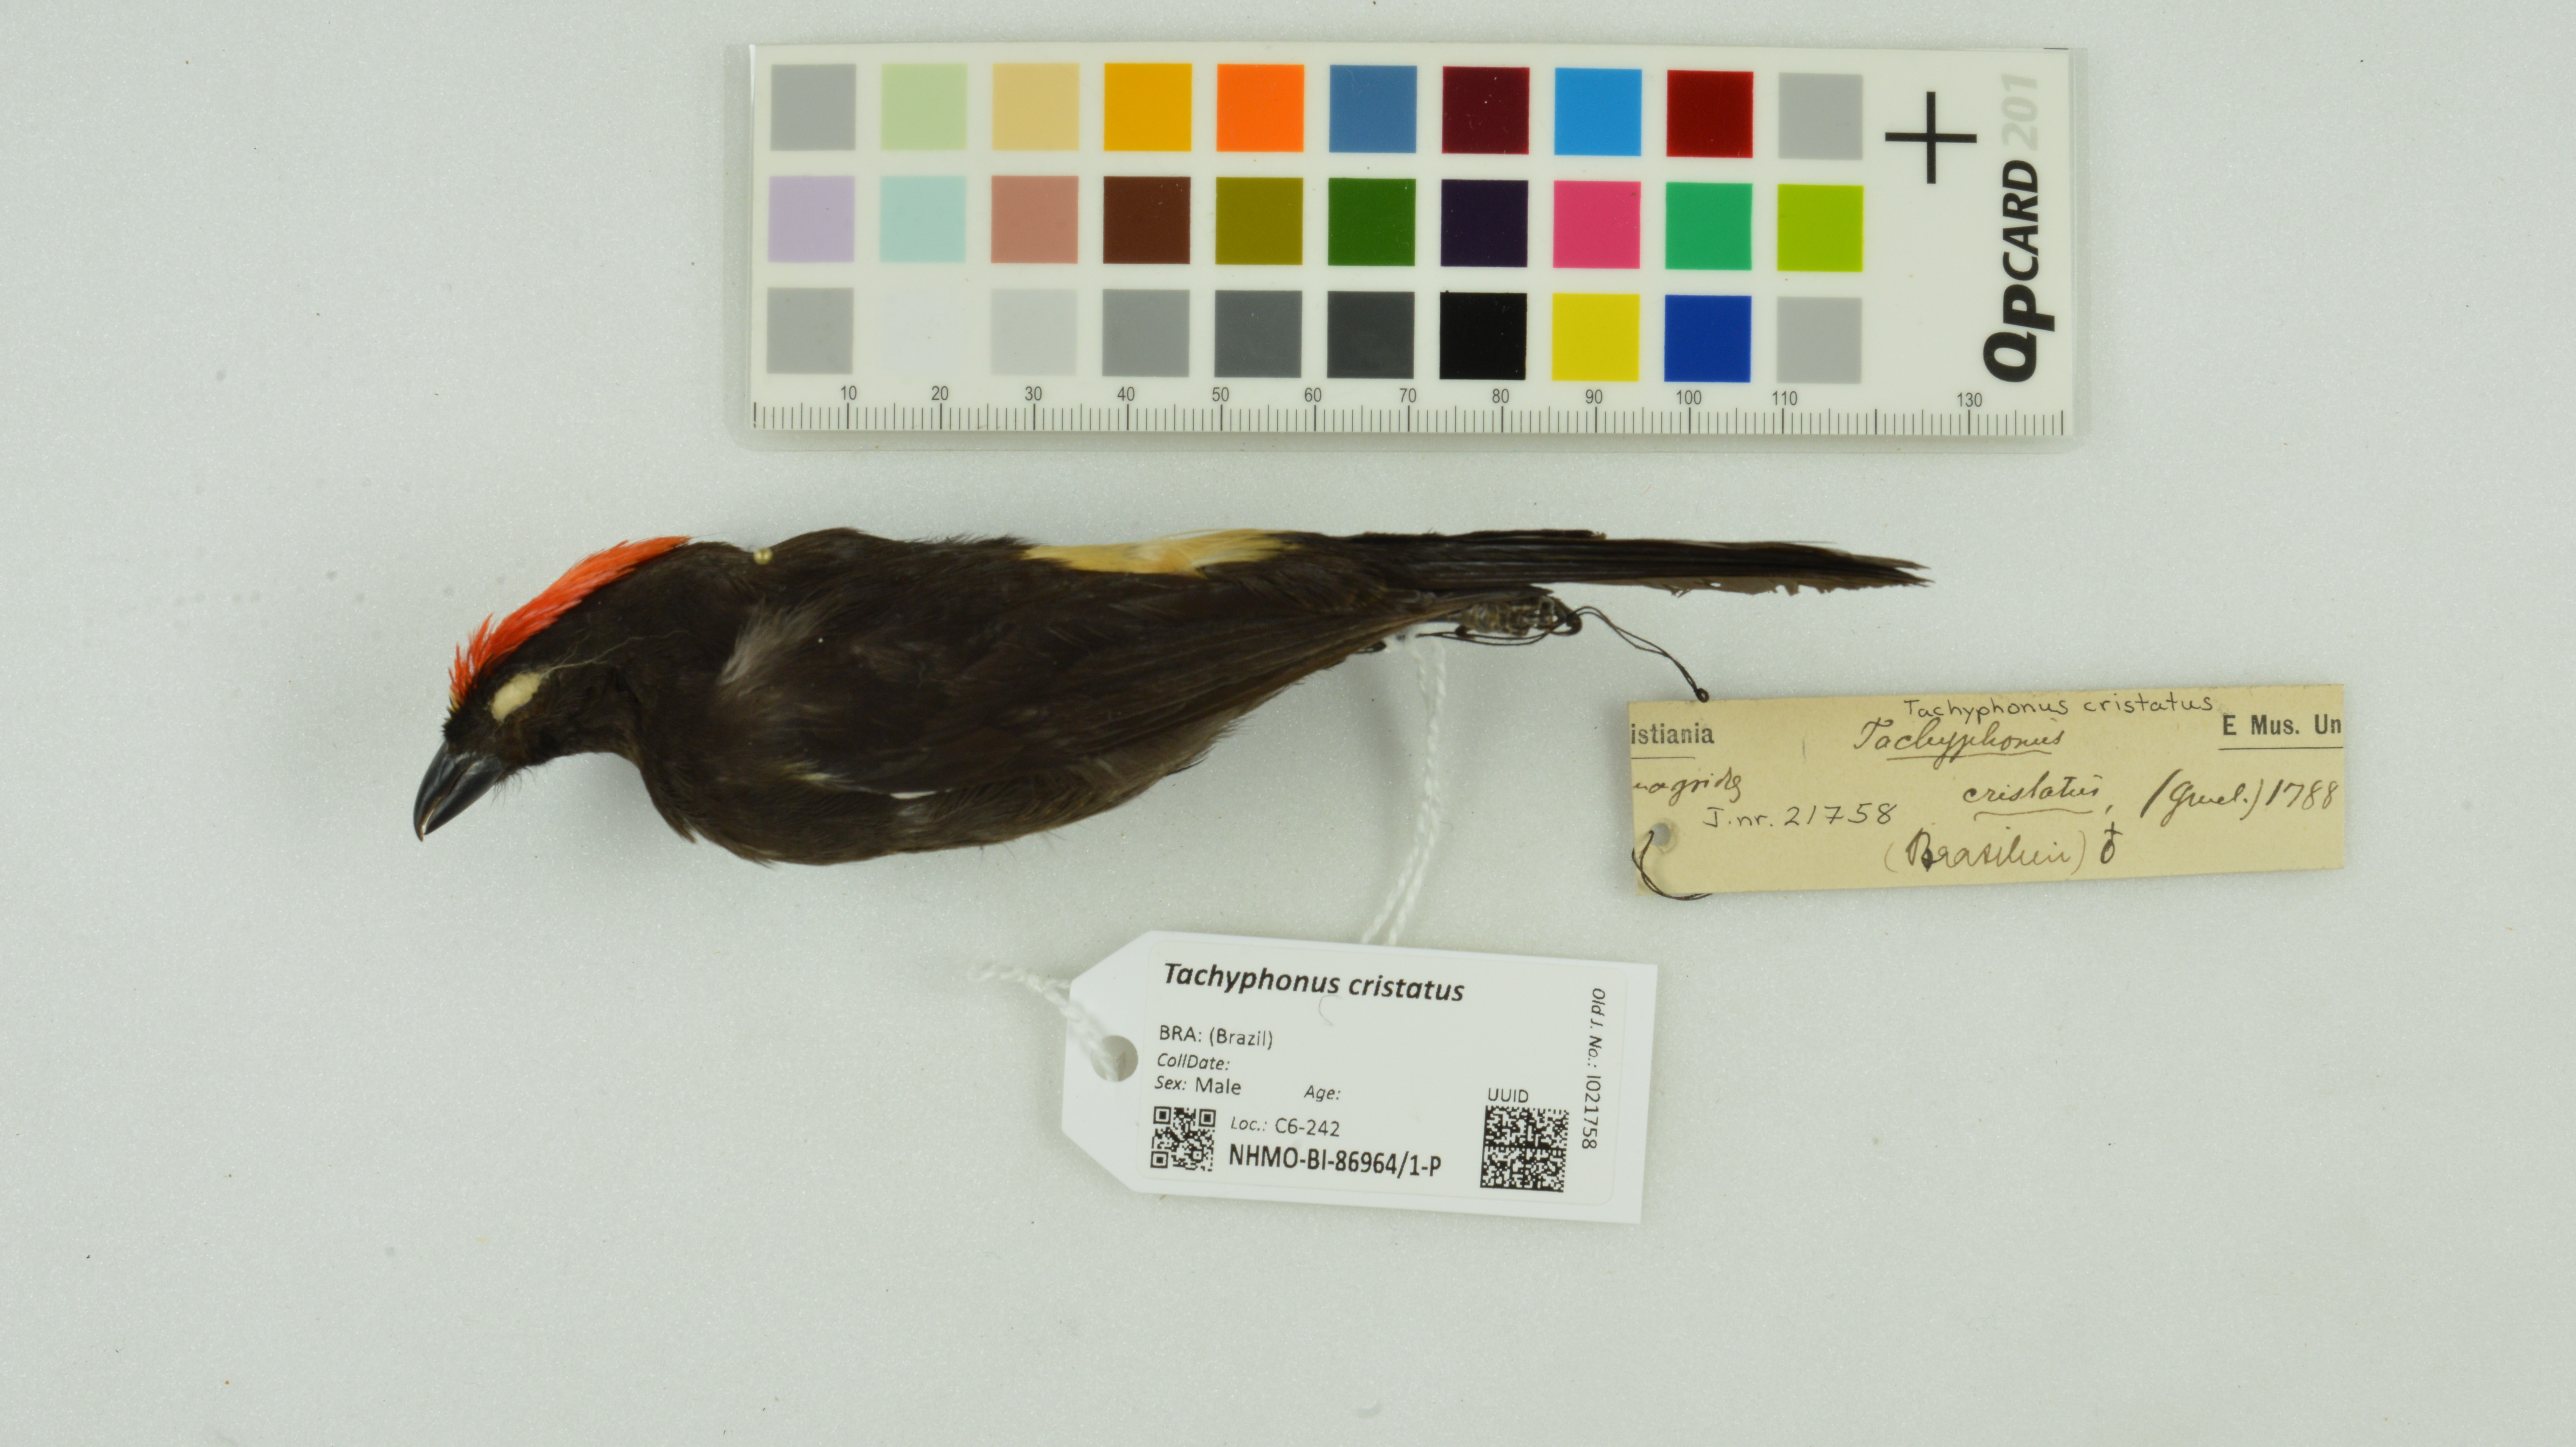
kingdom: Animalia
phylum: Chordata
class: Aves
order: Passeriformes
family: Thraupidae
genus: Loriotus
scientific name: Loriotus cristatus
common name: Flame-crested tanager
